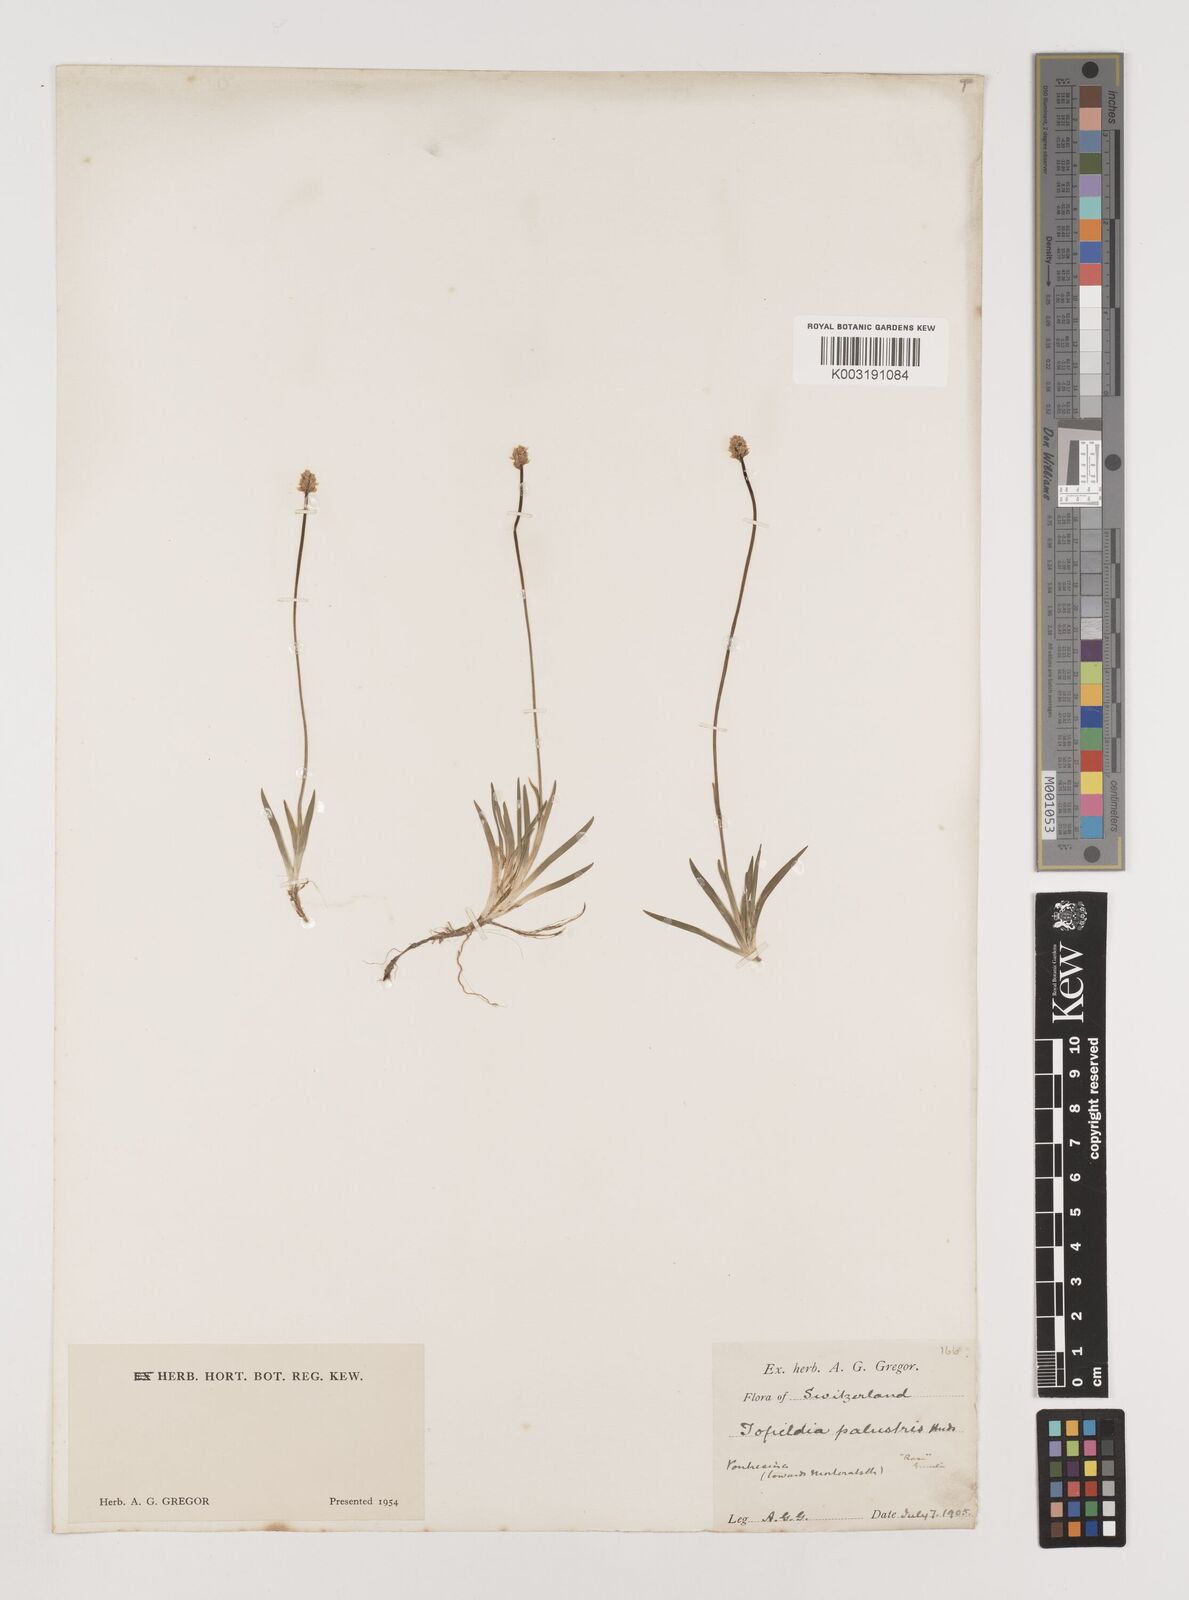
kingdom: Plantae
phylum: Tracheophyta
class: Liliopsida
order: Alismatales
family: Tofieldiaceae
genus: Tofieldia
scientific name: Tofieldia pusilla
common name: Scottish false asphodel
